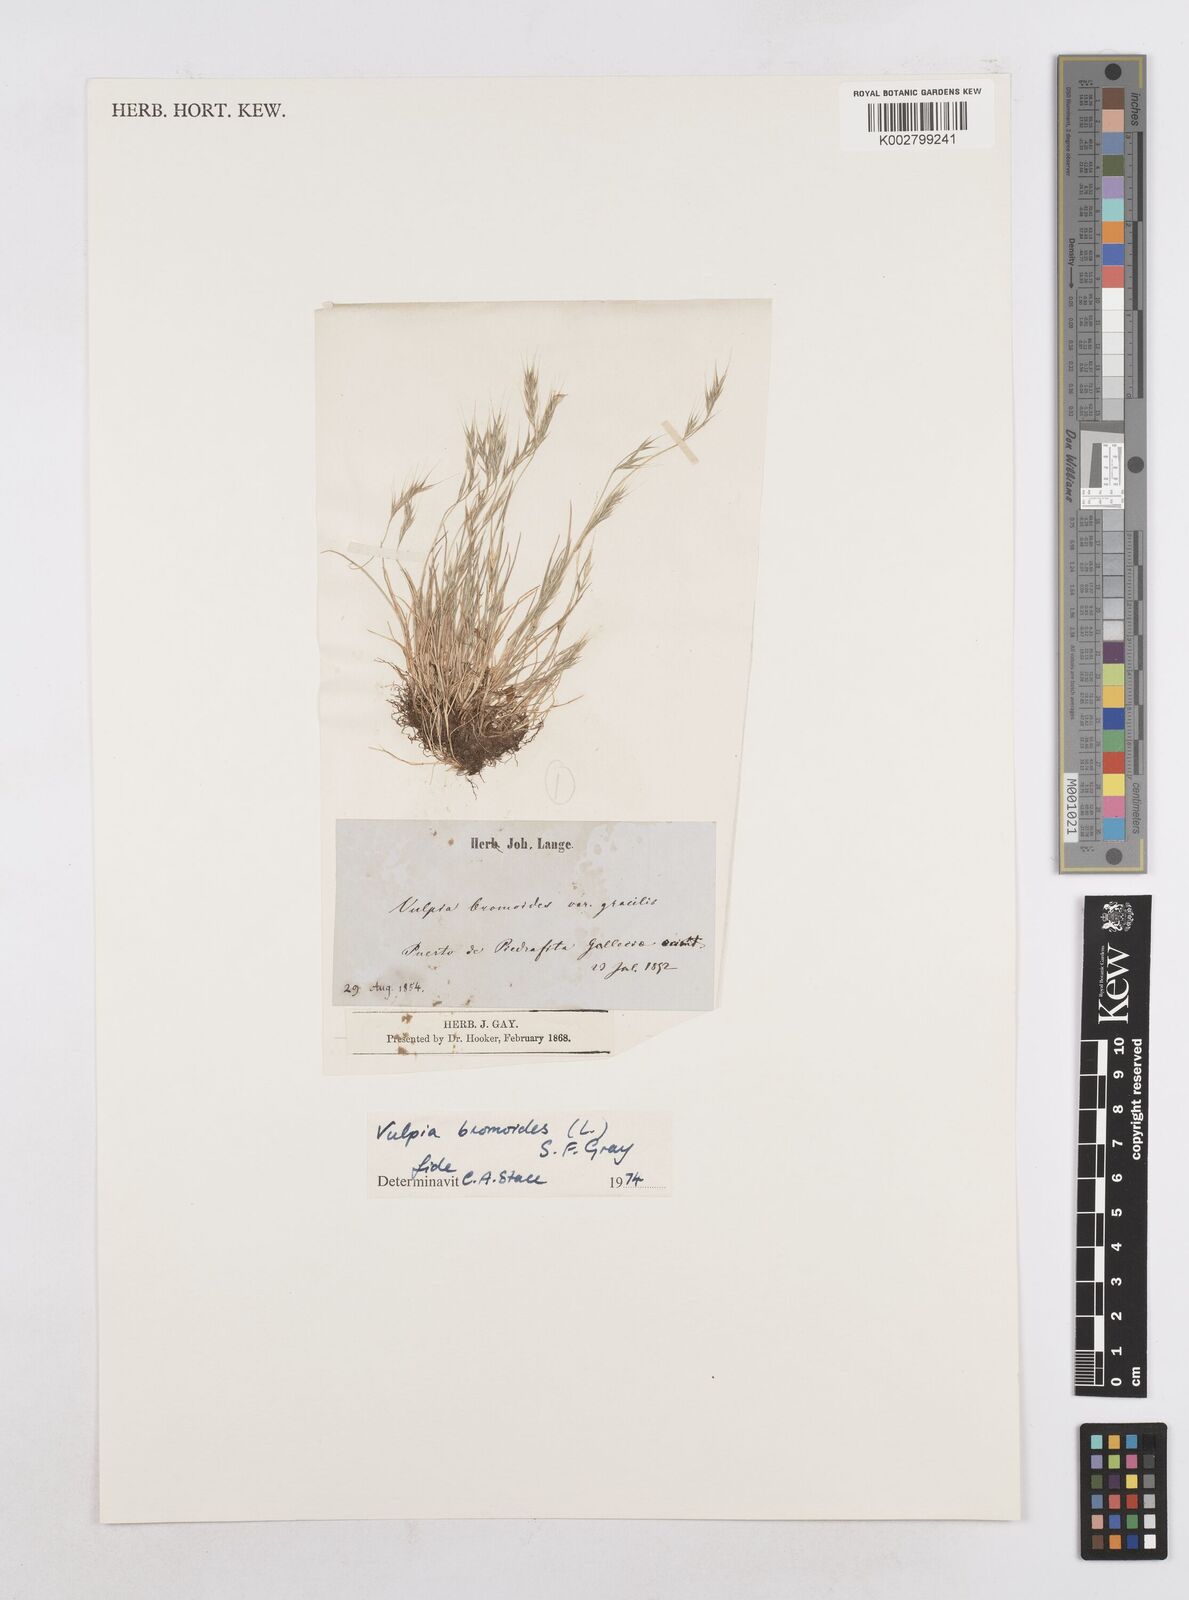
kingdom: Plantae
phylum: Tracheophyta
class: Liliopsida
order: Poales
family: Poaceae
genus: Festuca
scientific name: Festuca bromoides
